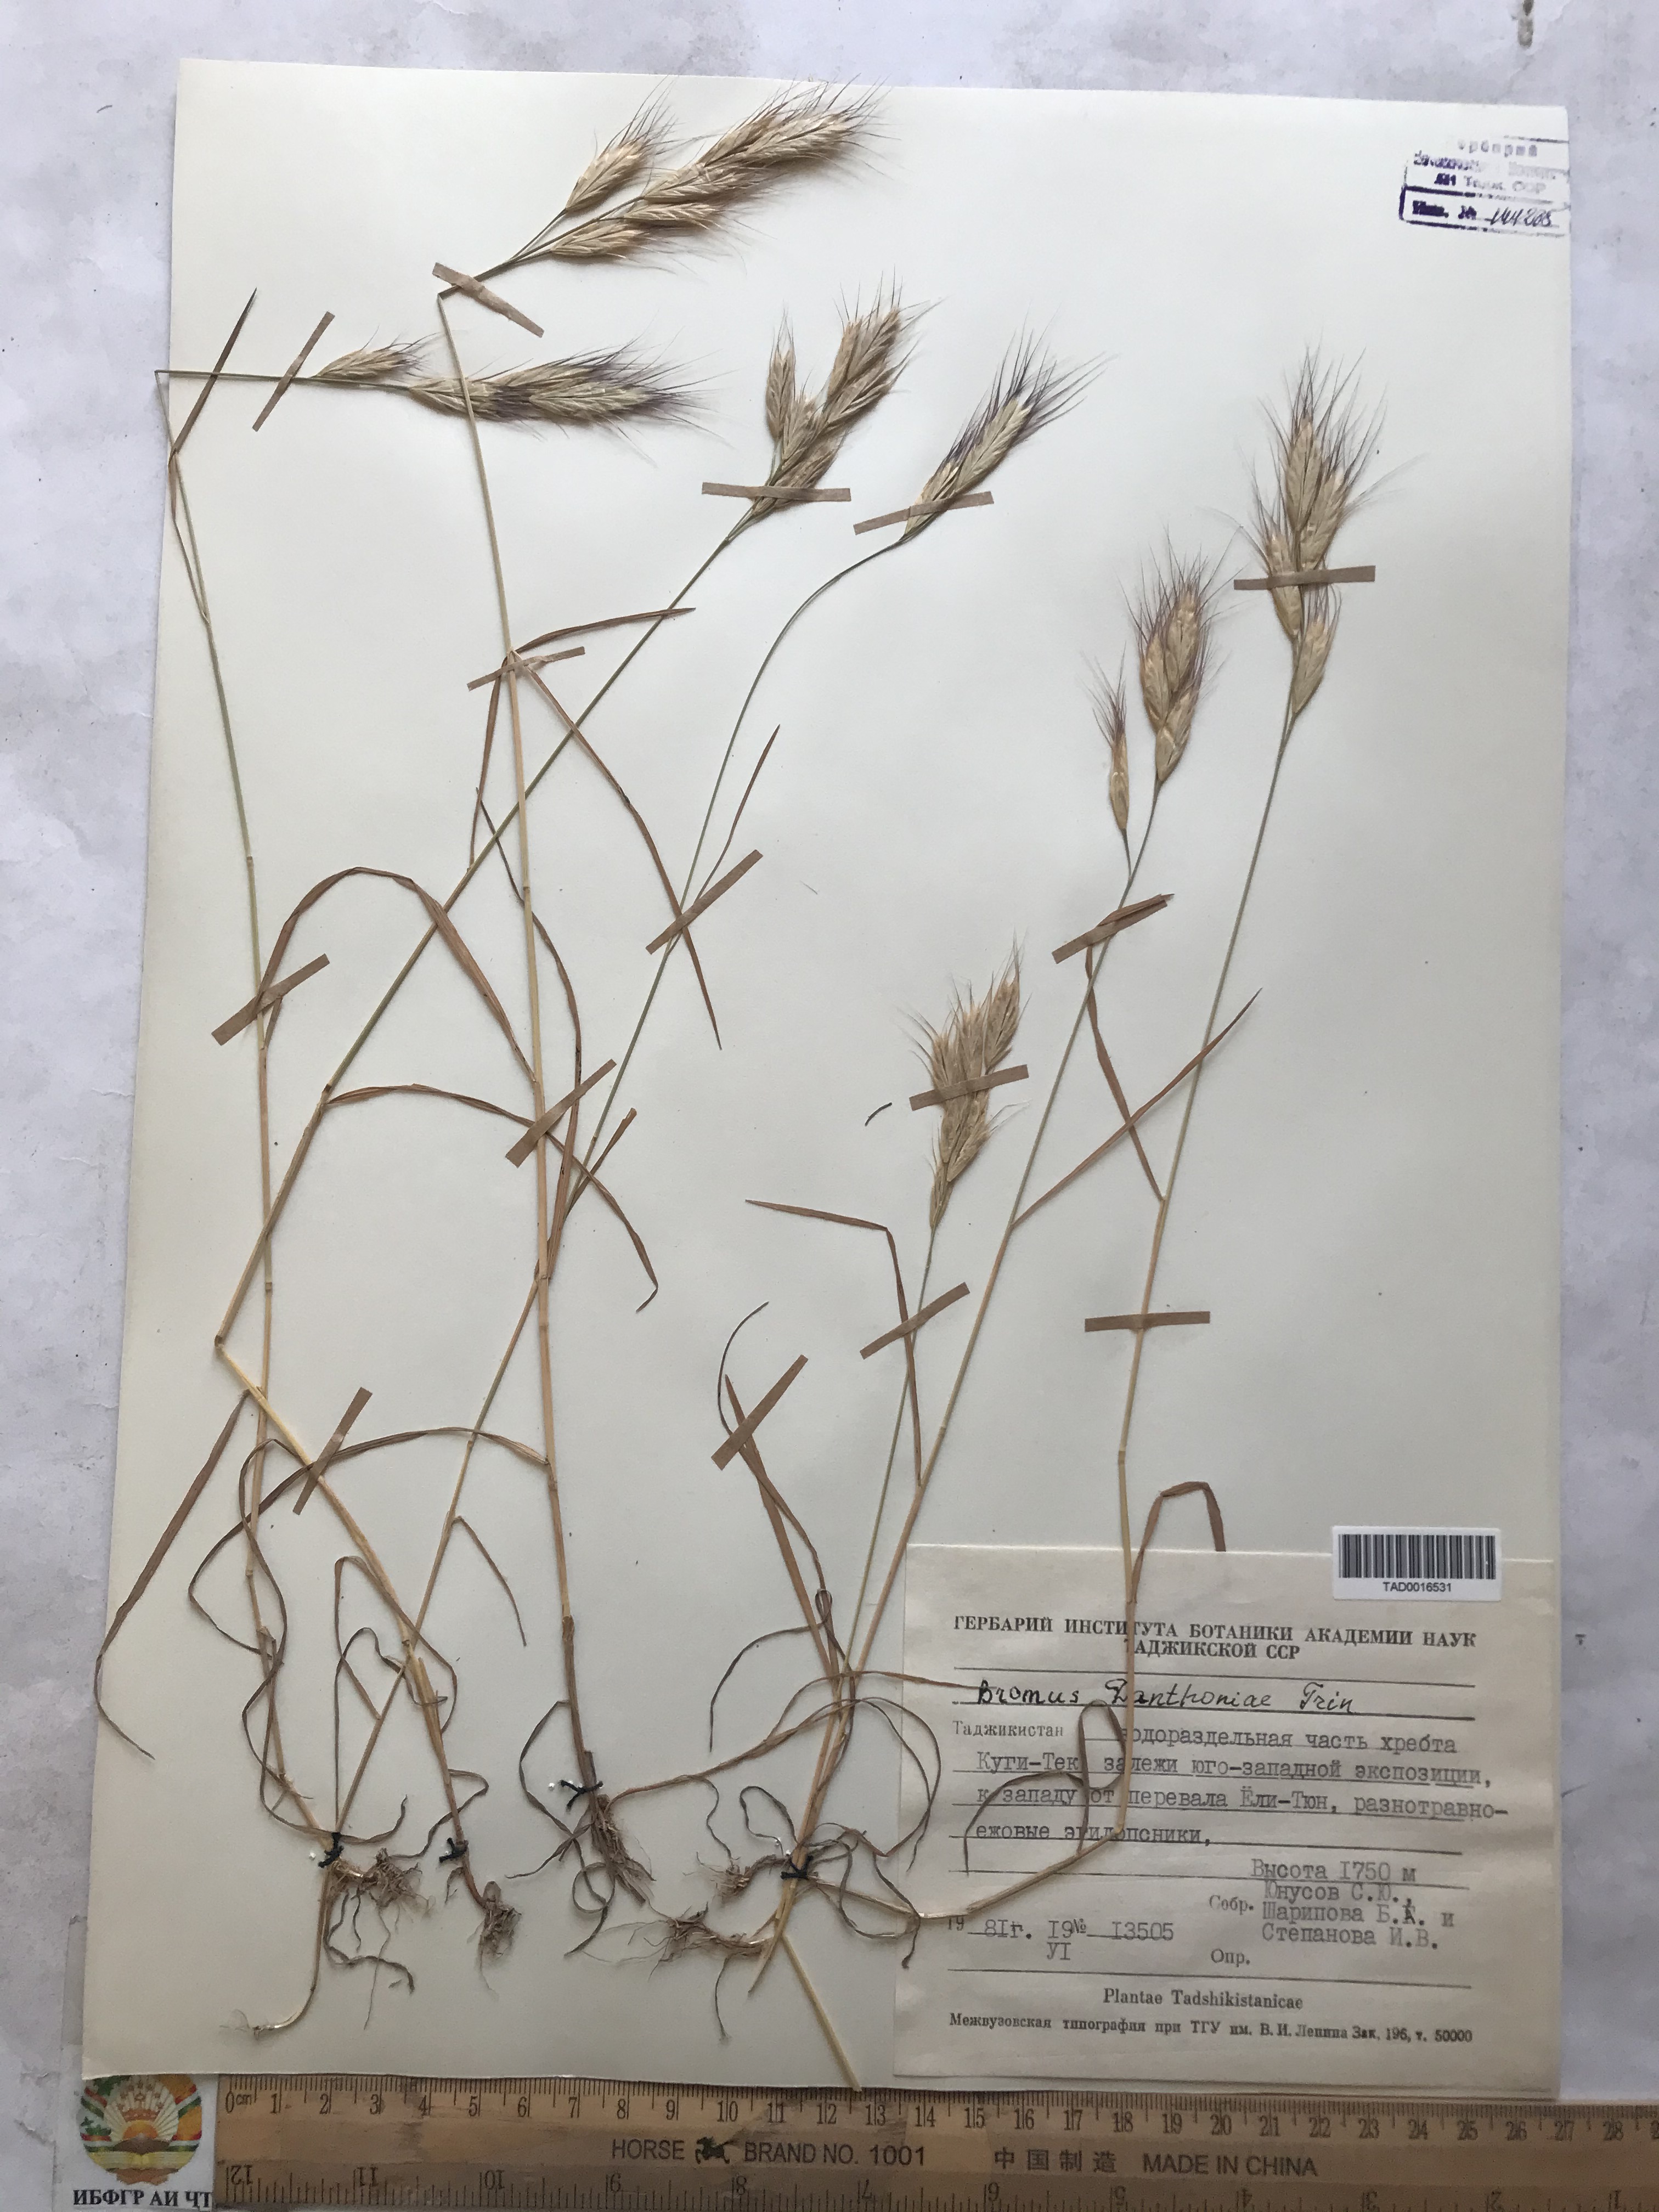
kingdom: Plantae
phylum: Tracheophyta
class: Liliopsida
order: Poales
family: Poaceae
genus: Bromus
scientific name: Bromus danthoniae
